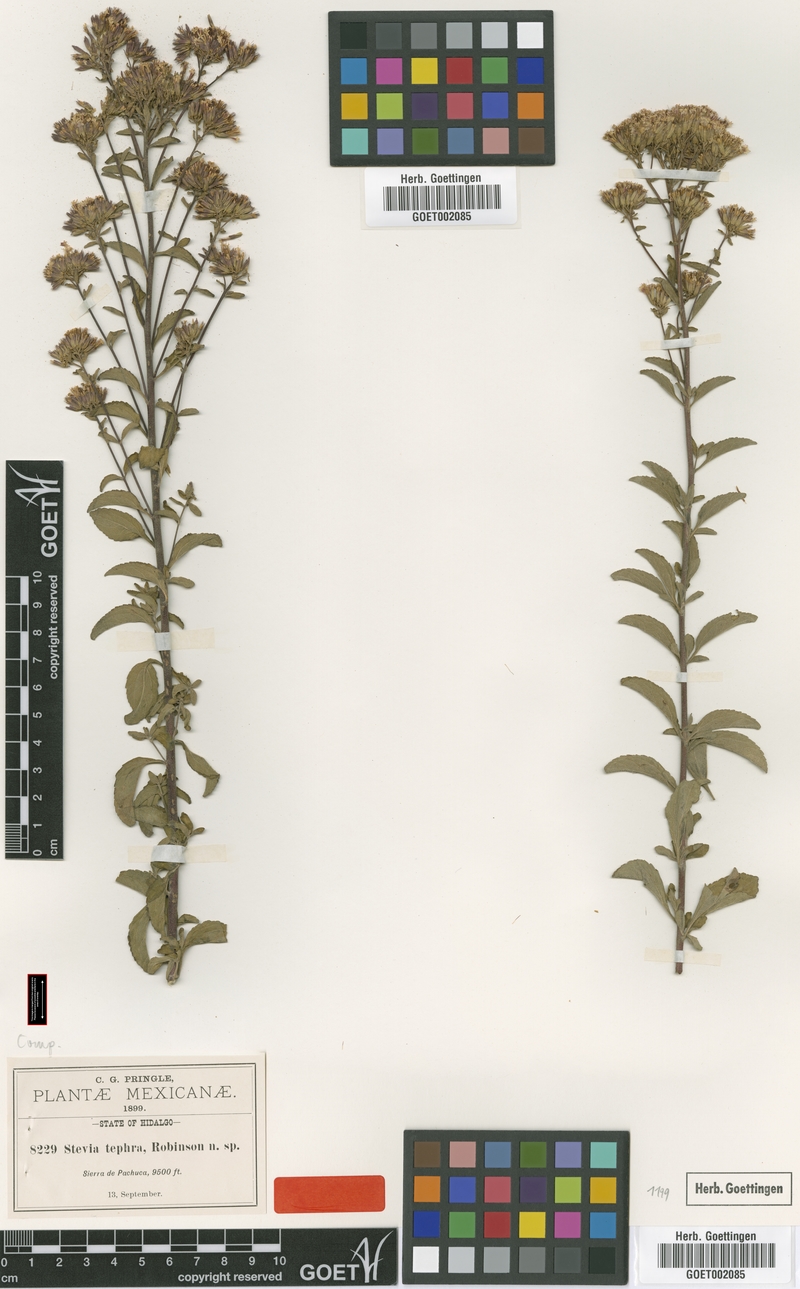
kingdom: Plantae
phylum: Tracheophyta
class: Magnoliopsida
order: Asterales
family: Asteraceae
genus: Stevia
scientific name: Stevia tephra
